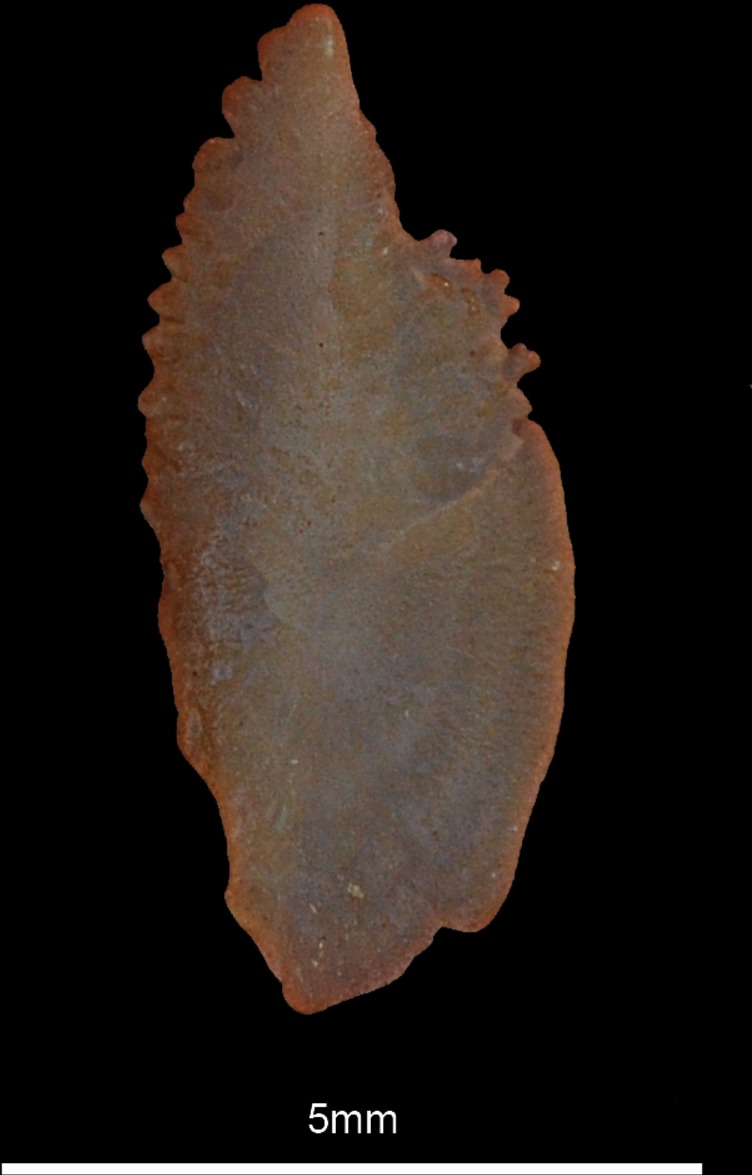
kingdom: Animalia
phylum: Chordata
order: Scorpaeniformes
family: Scorpaenidae
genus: Scorpaena
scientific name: Scorpaena notata
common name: Small red scorpionfish
